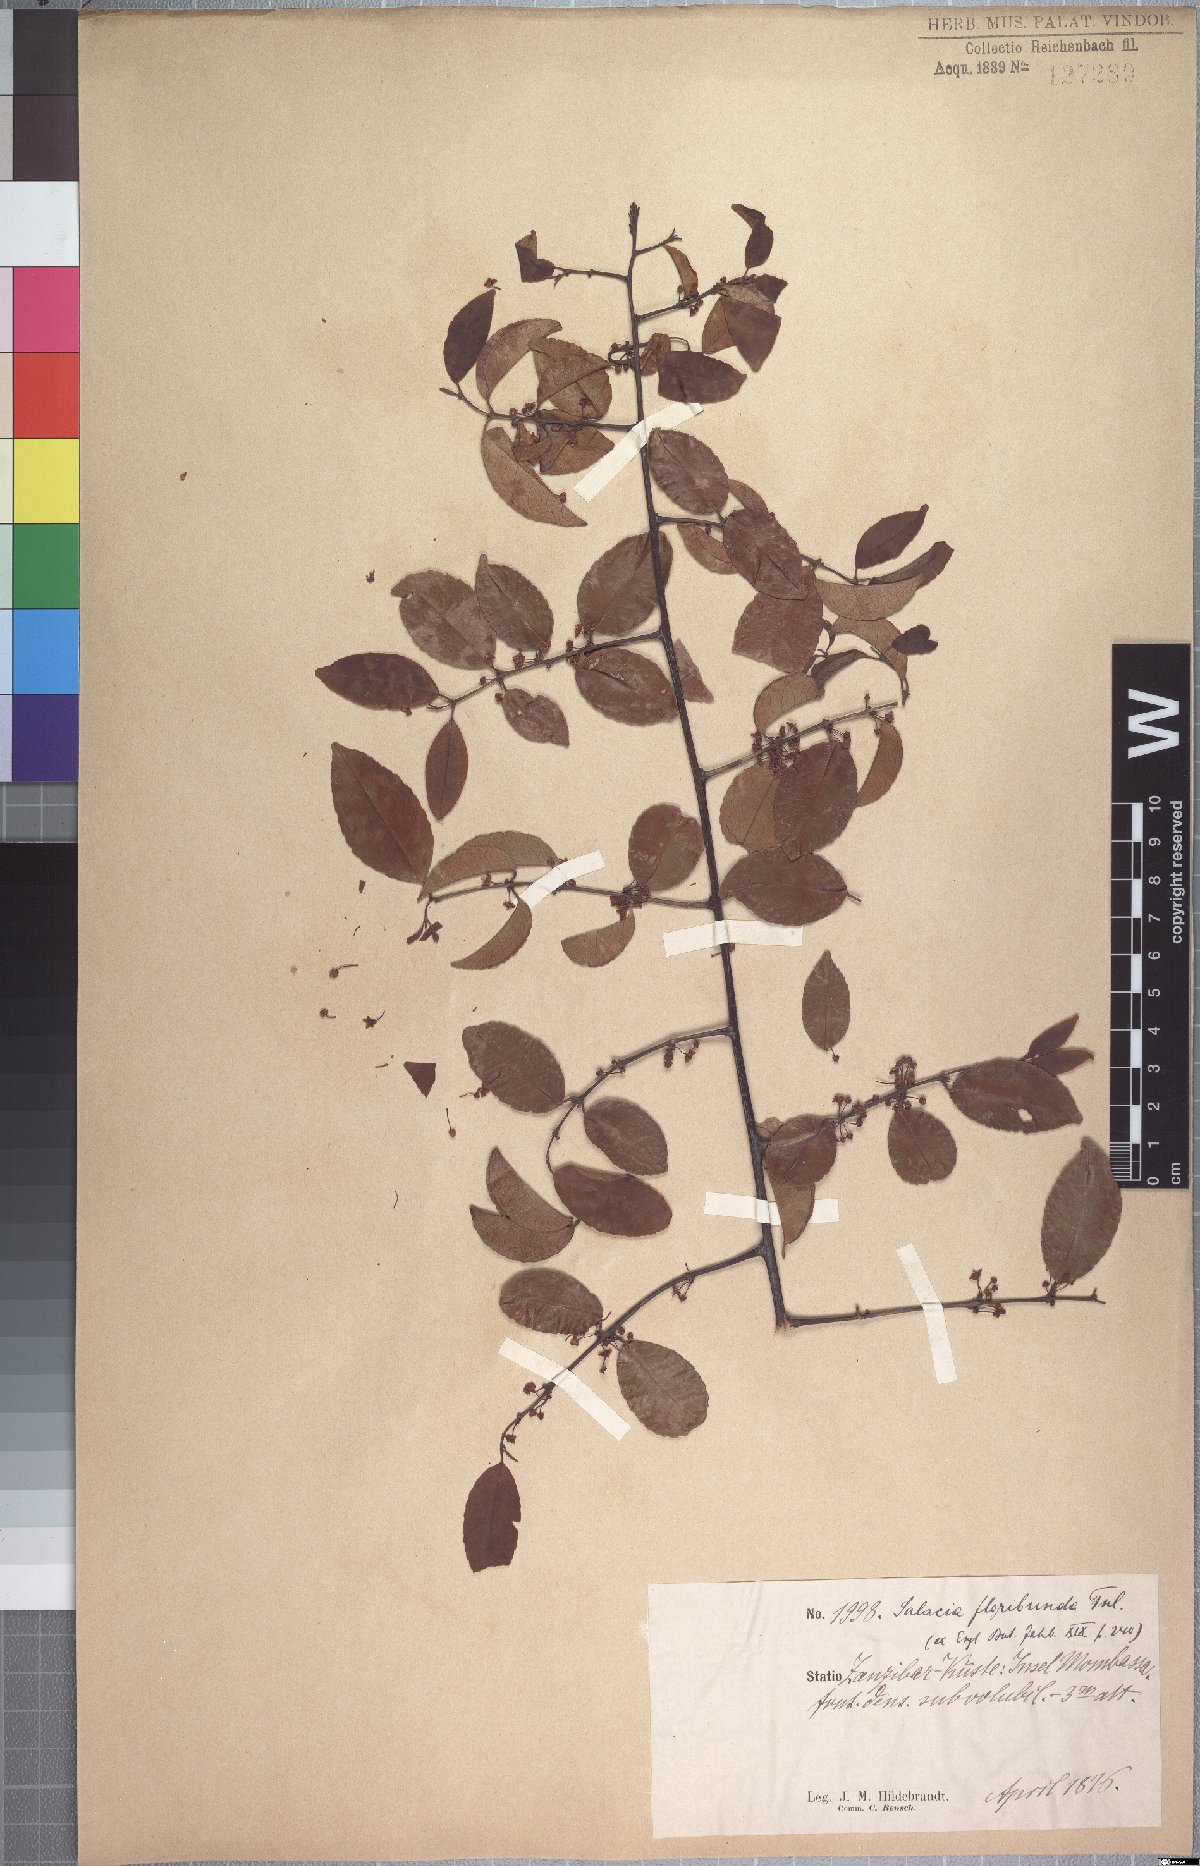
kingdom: Plantae
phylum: Tracheophyta
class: Magnoliopsida
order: Celastrales
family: Celastraceae
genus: Salacia
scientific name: Salacia elegans
